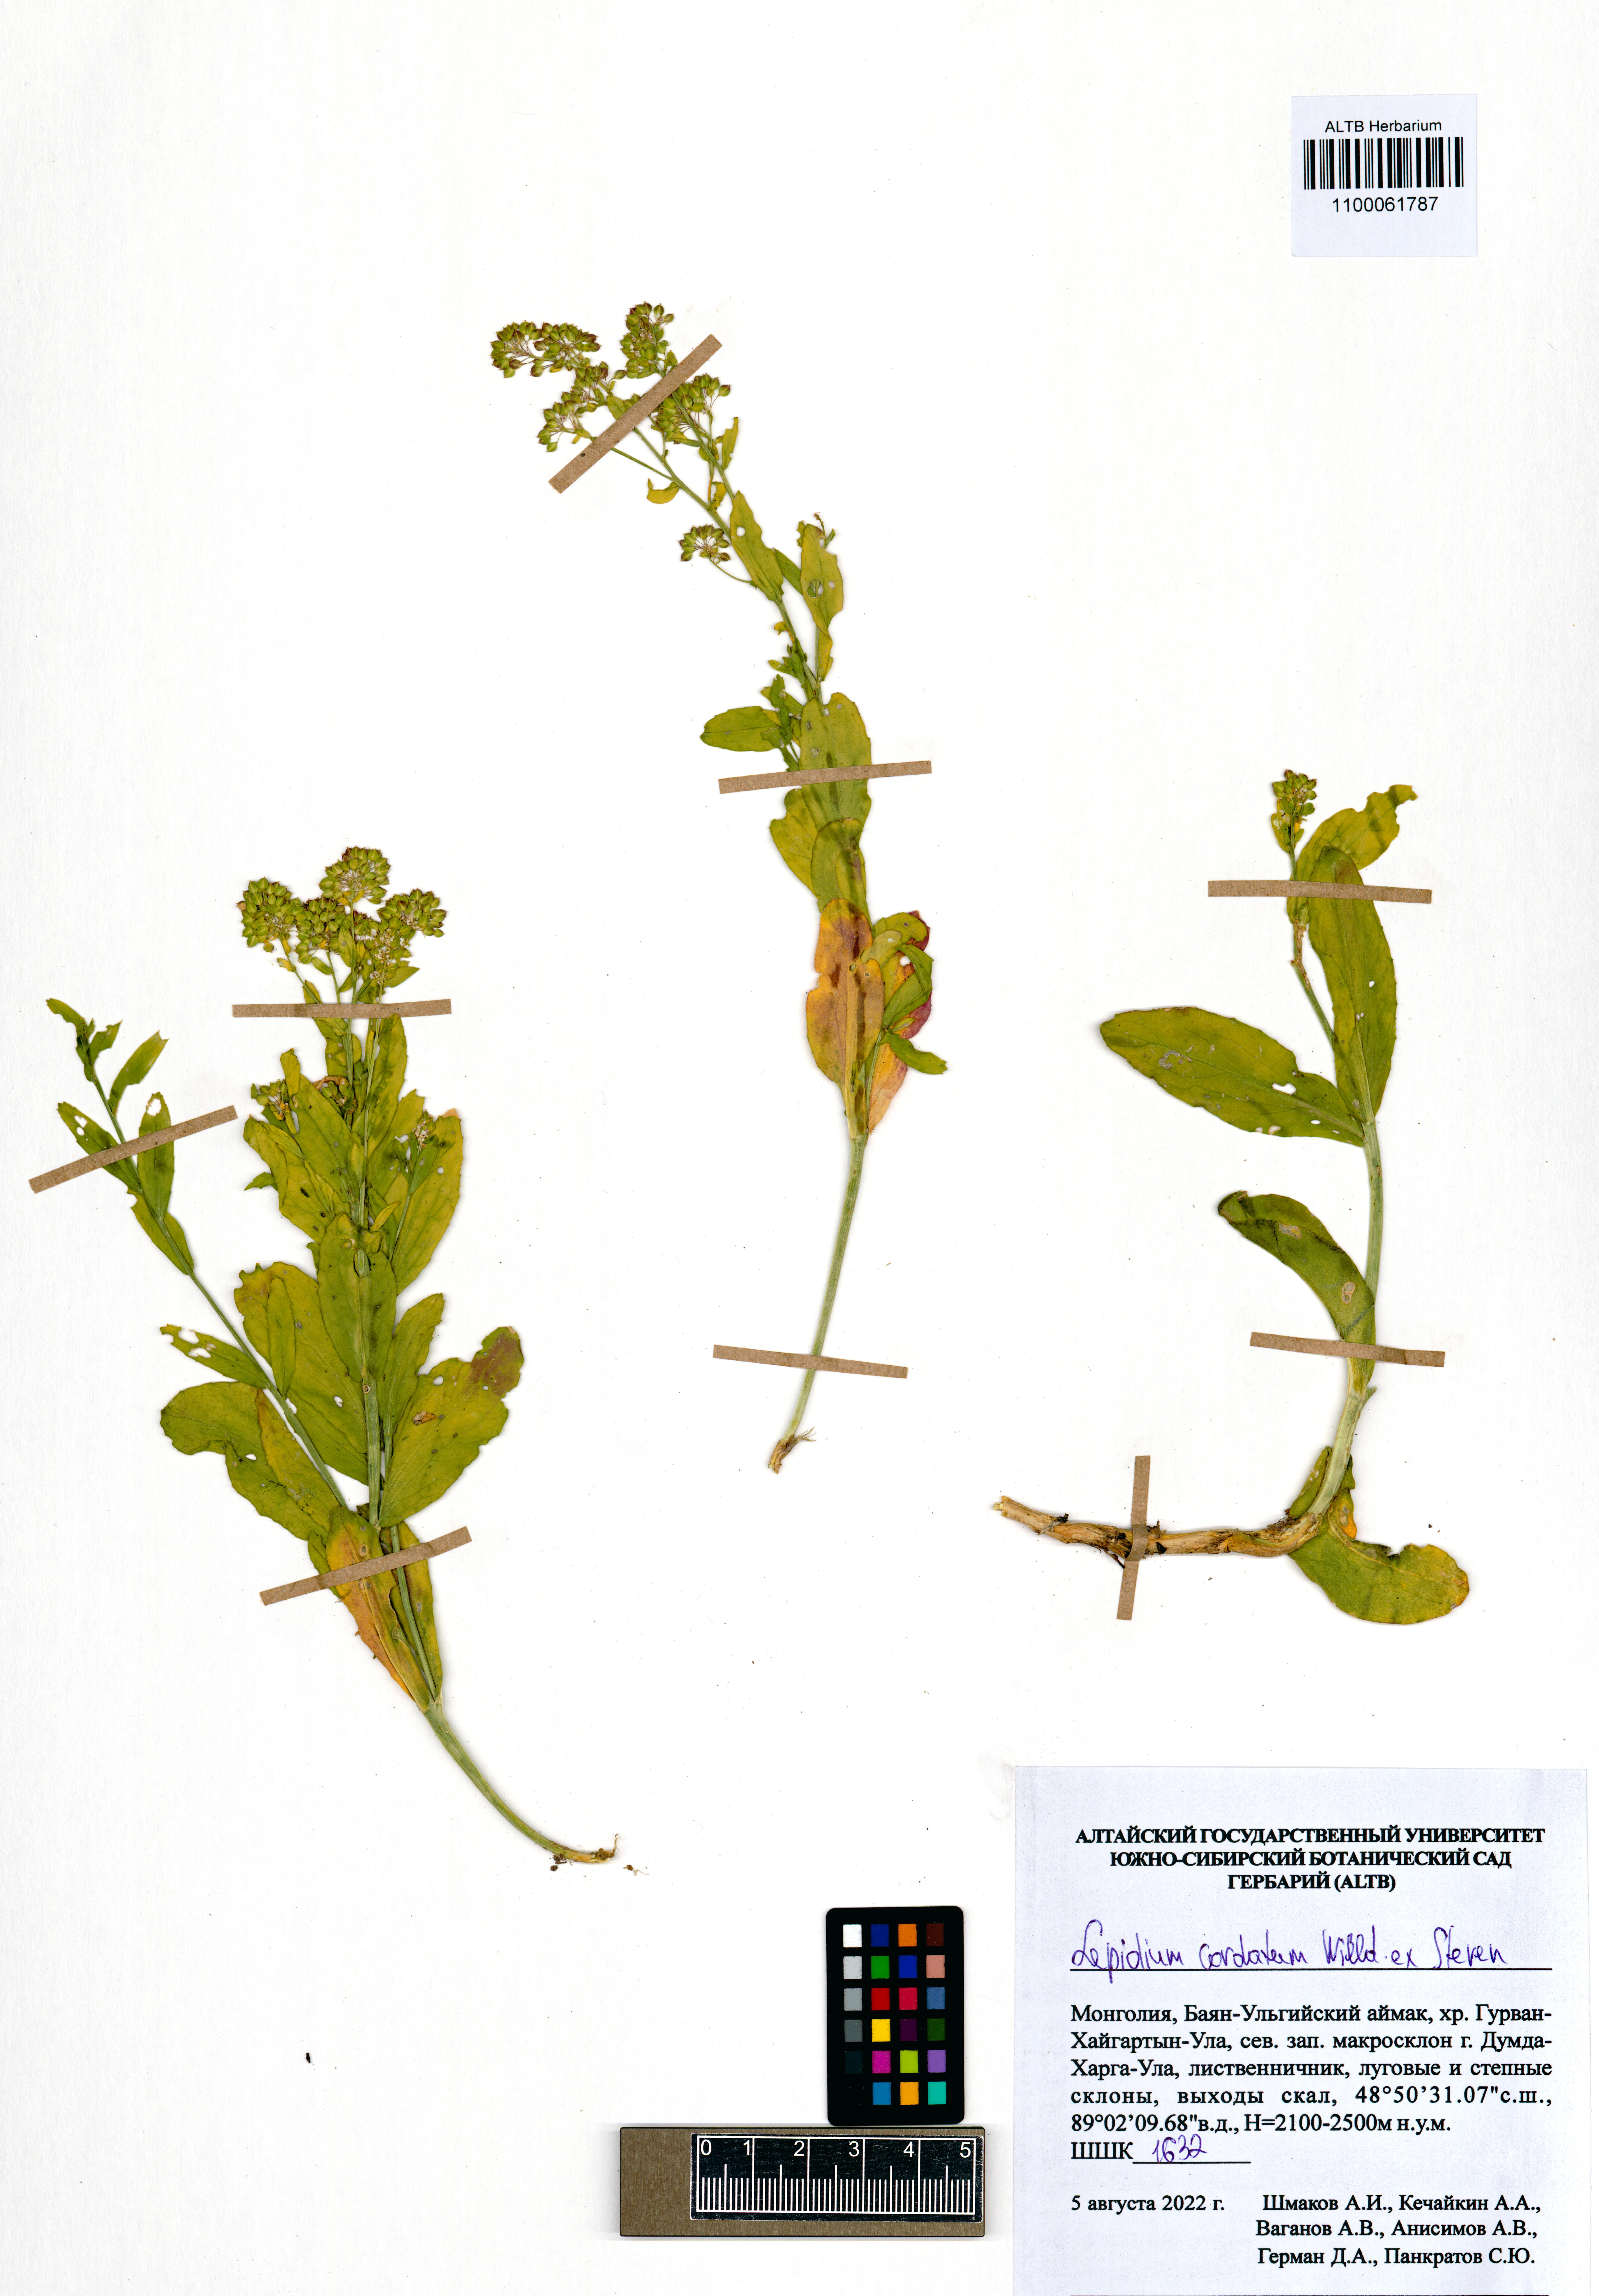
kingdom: Plantae
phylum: Tracheophyta
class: Magnoliopsida
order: Brassicales
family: Brassicaceae
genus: Lepidium
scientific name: Lepidium cordatum
